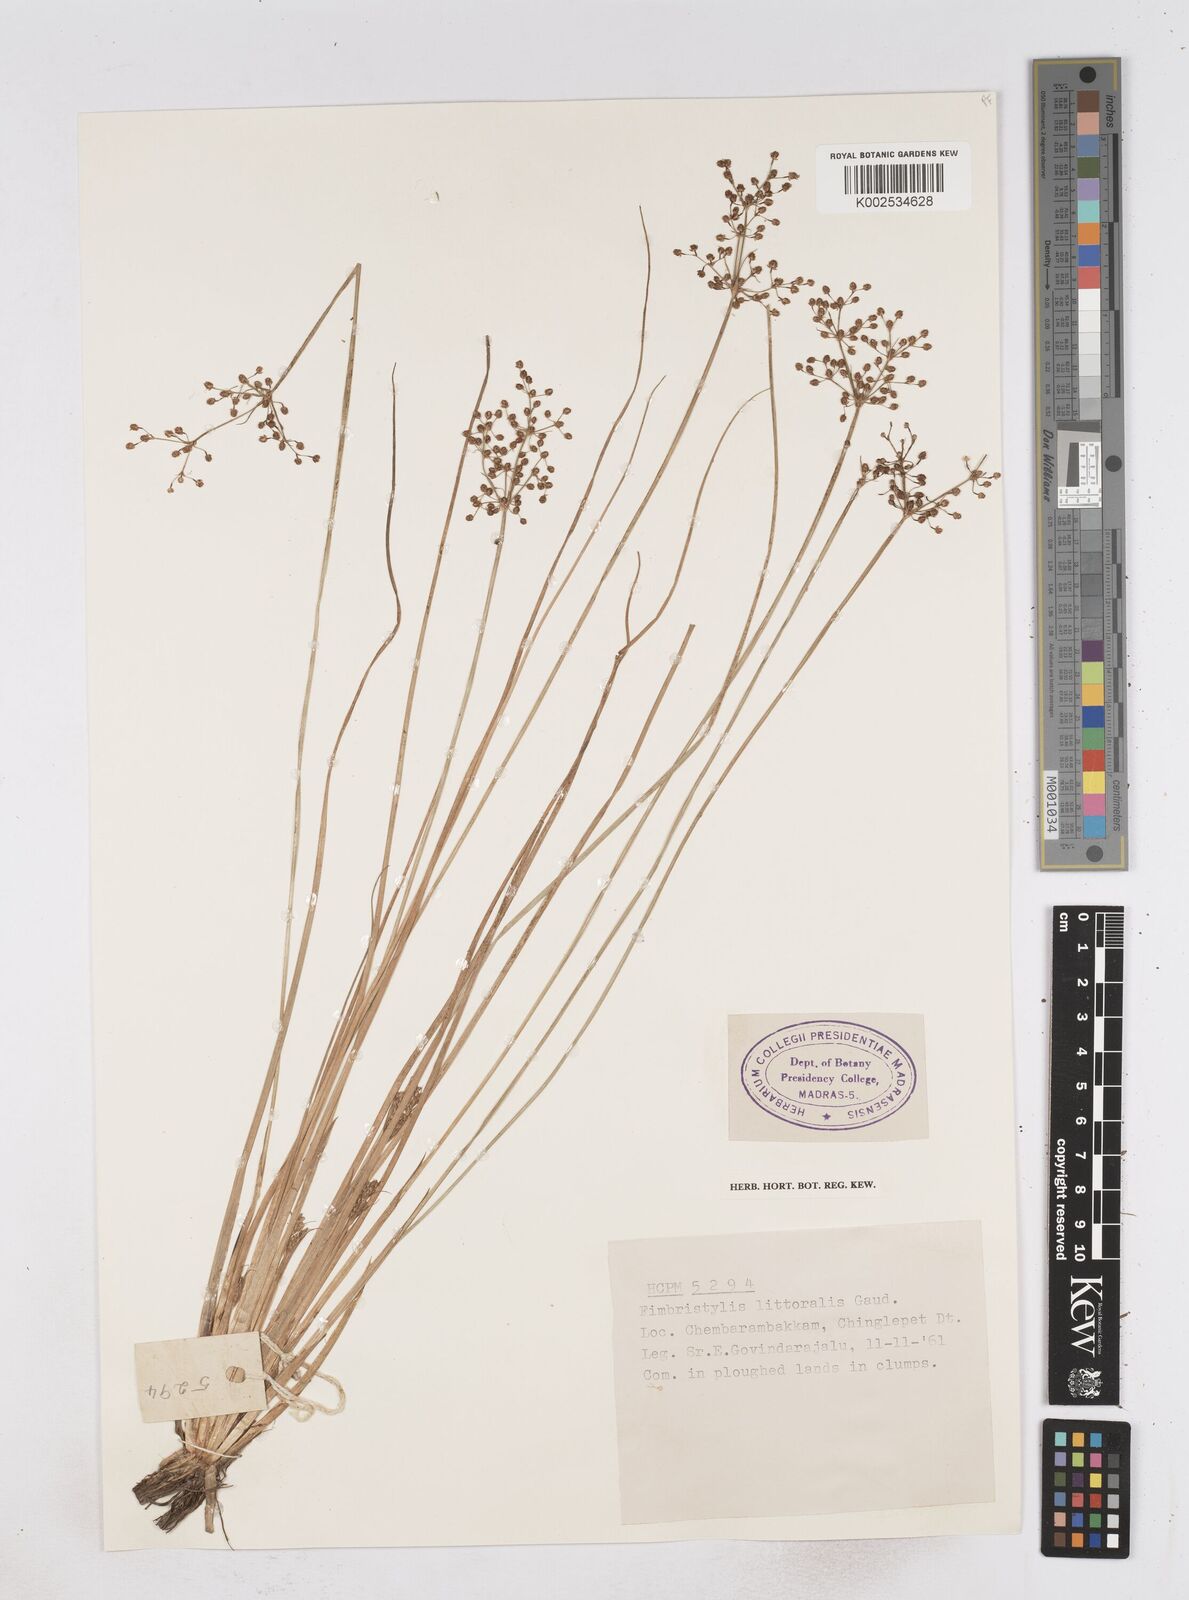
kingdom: Plantae
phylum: Tracheophyta
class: Liliopsida
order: Poales
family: Cyperaceae
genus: Fimbristylis
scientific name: Fimbristylis littoralis
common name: Fimbry
